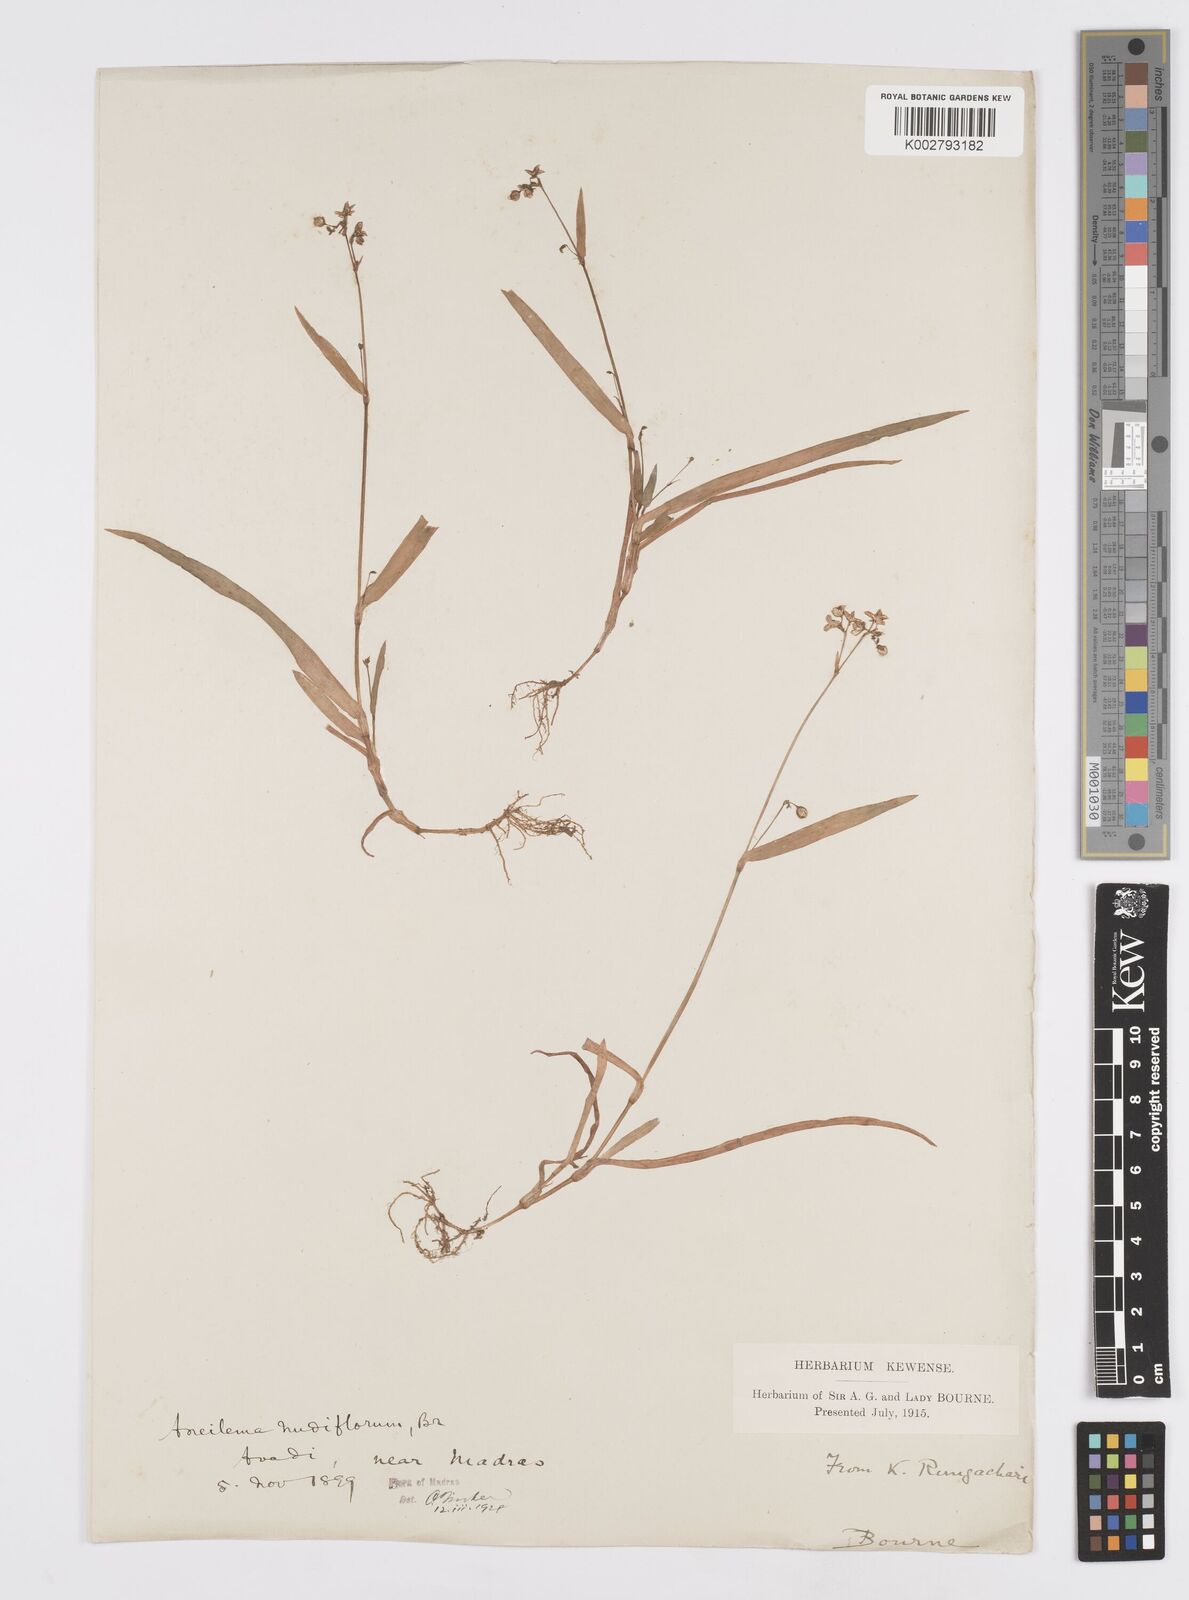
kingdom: Plantae
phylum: Tracheophyta
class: Liliopsida
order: Commelinales
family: Commelinaceae
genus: Murdannia
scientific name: Murdannia
